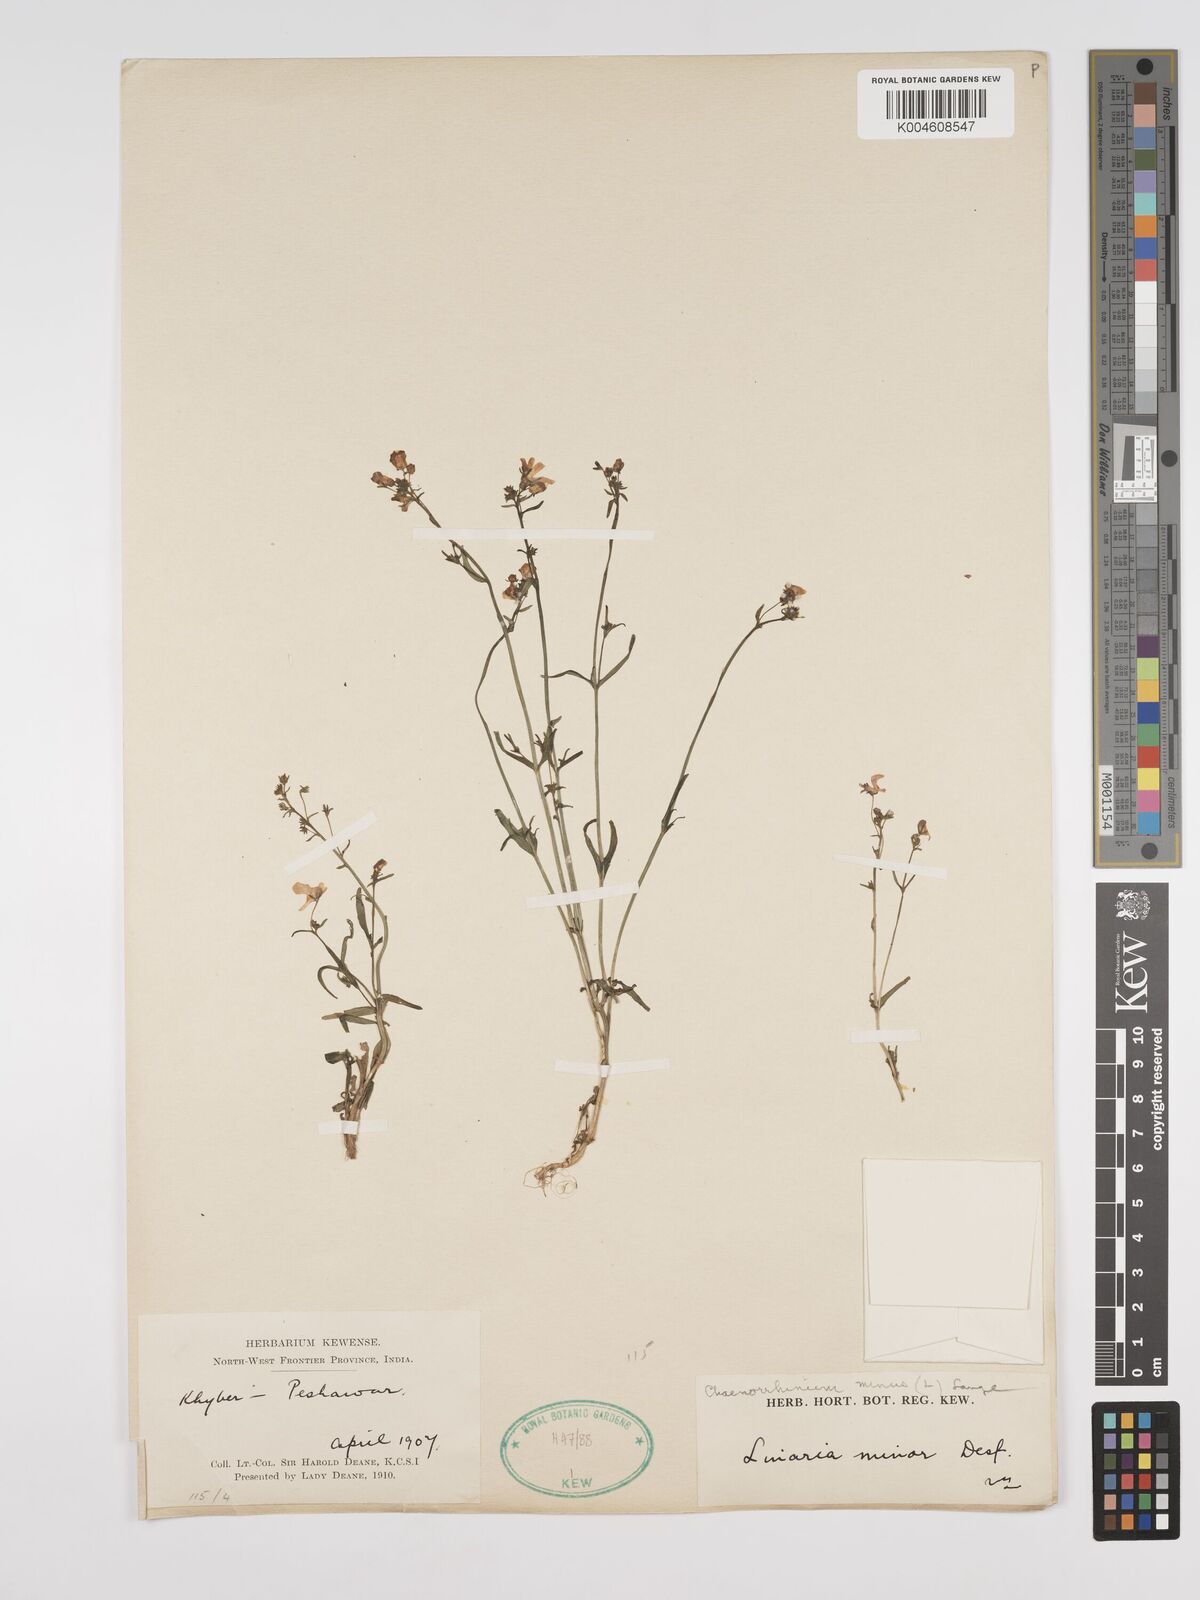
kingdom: Plantae
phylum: Tracheophyta
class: Magnoliopsida
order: Lamiales
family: Plantaginaceae
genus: Kickxia
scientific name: Kickxia
